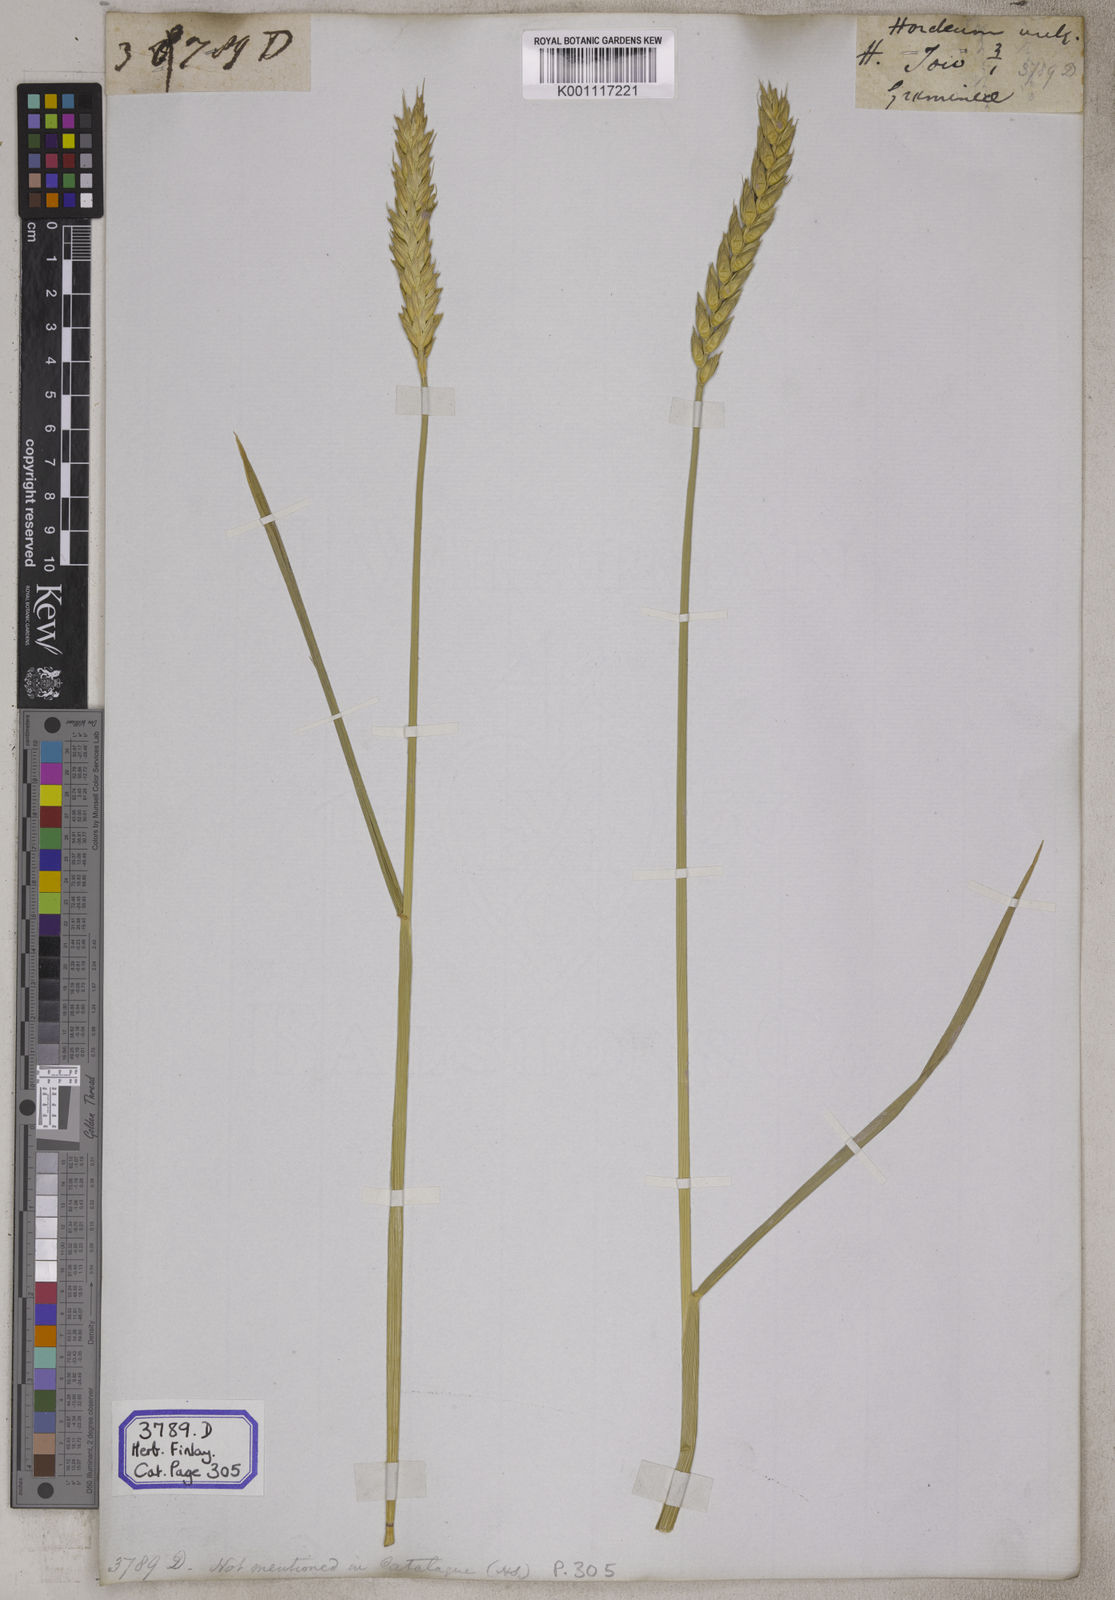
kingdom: Plantae
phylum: Tracheophyta
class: Liliopsida
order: Poales
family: Poaceae
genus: Hordeum
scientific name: Hordeum vulgare
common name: Common barley
